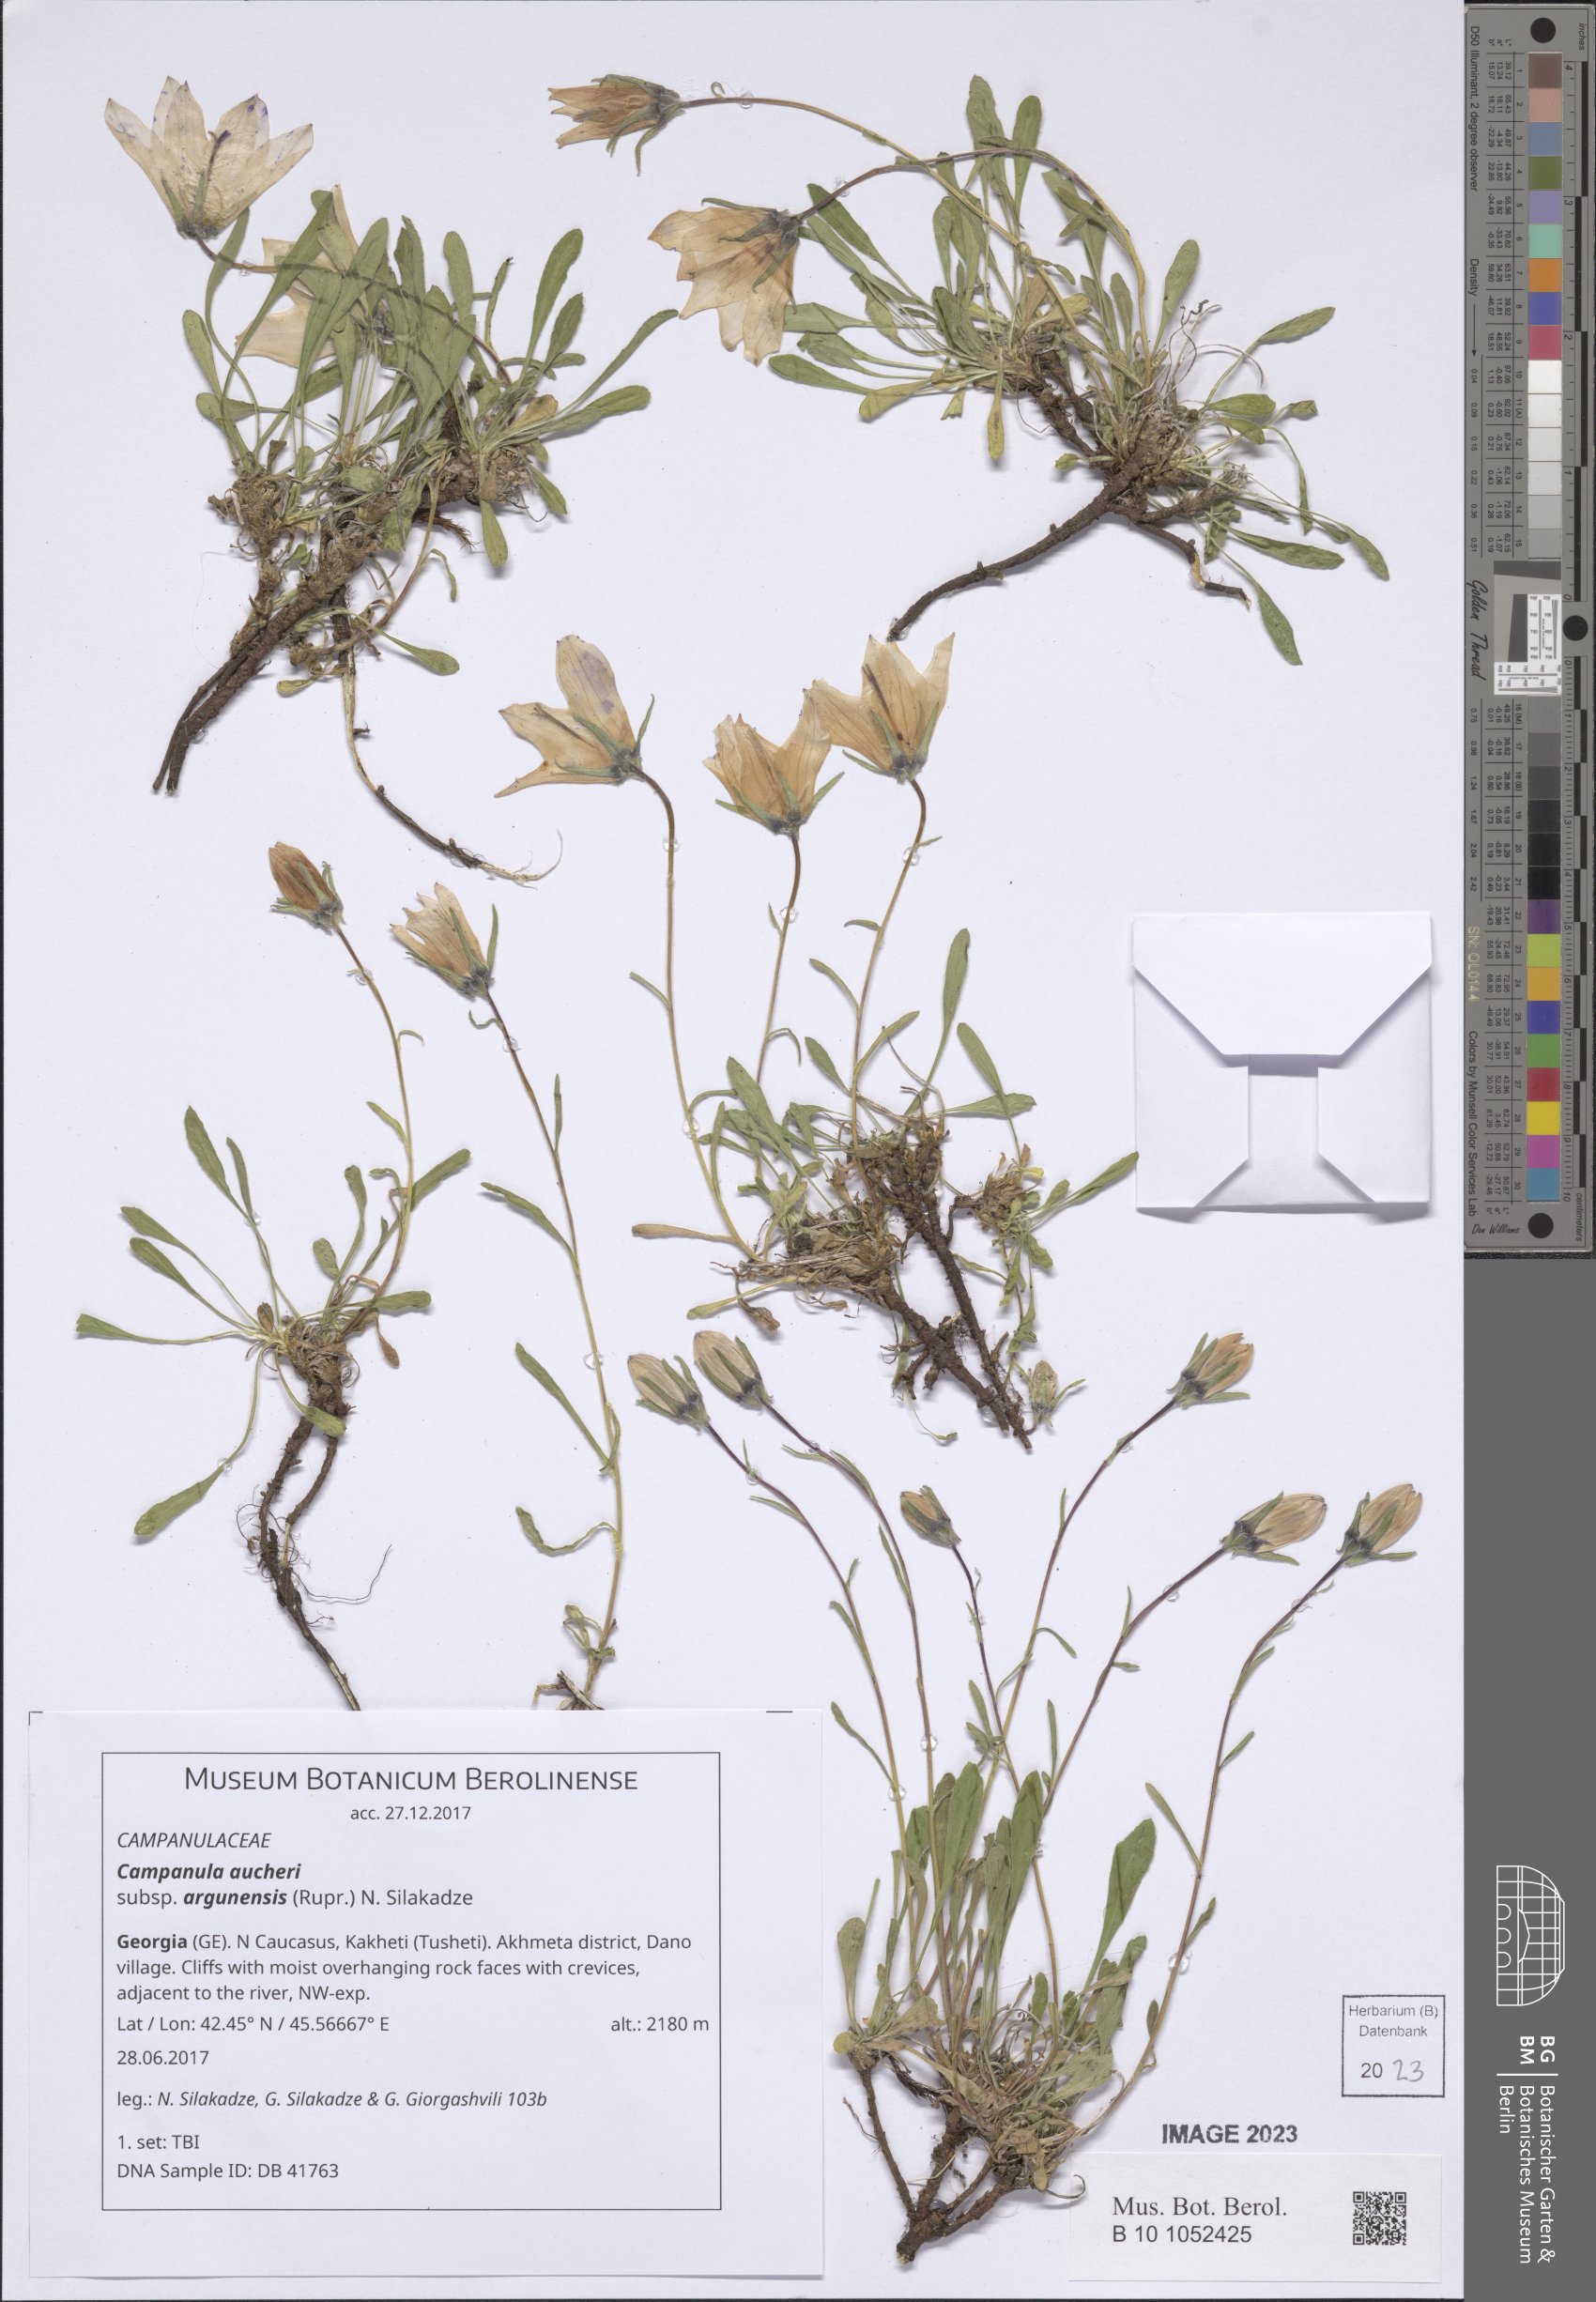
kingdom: Plantae
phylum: Tracheophyta
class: Magnoliopsida
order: Asterales
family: Campanulaceae
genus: Campanula
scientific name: Campanula saxifraga
